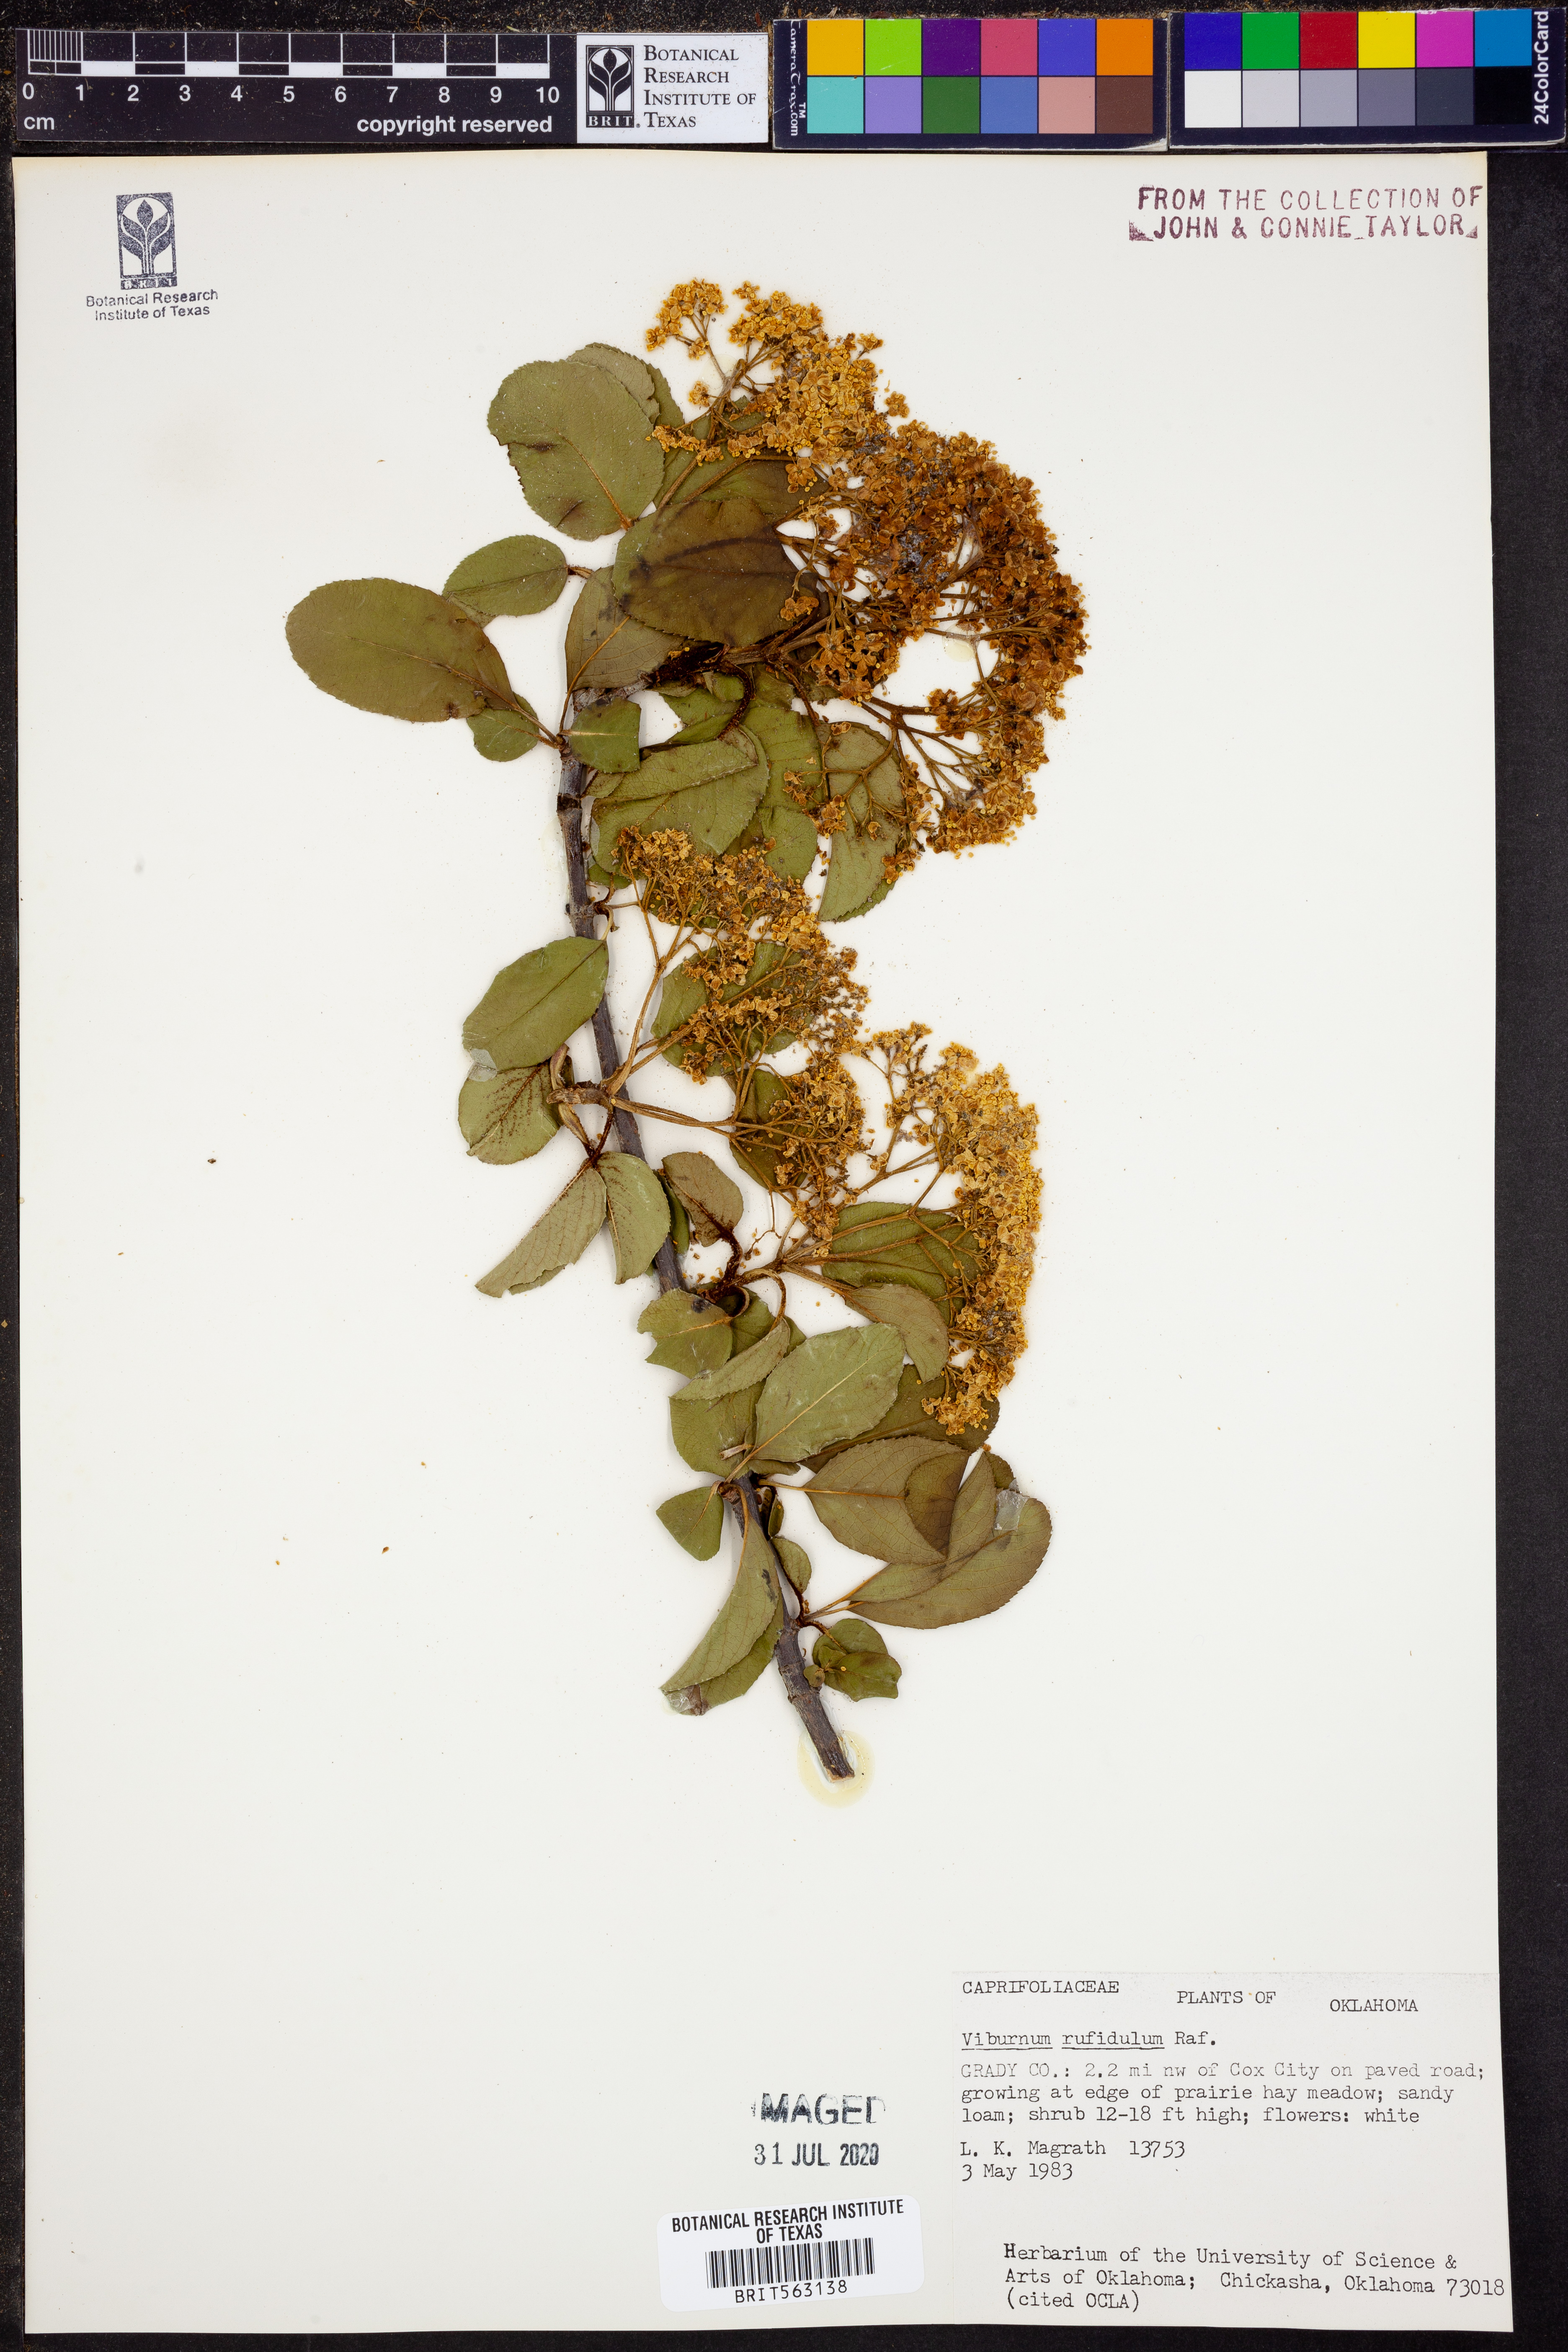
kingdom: Plantae
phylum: Tracheophyta
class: Magnoliopsida
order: Dipsacales
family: Viburnaceae
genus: Viburnum
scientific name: Viburnum rufidulum
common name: Blue haw
